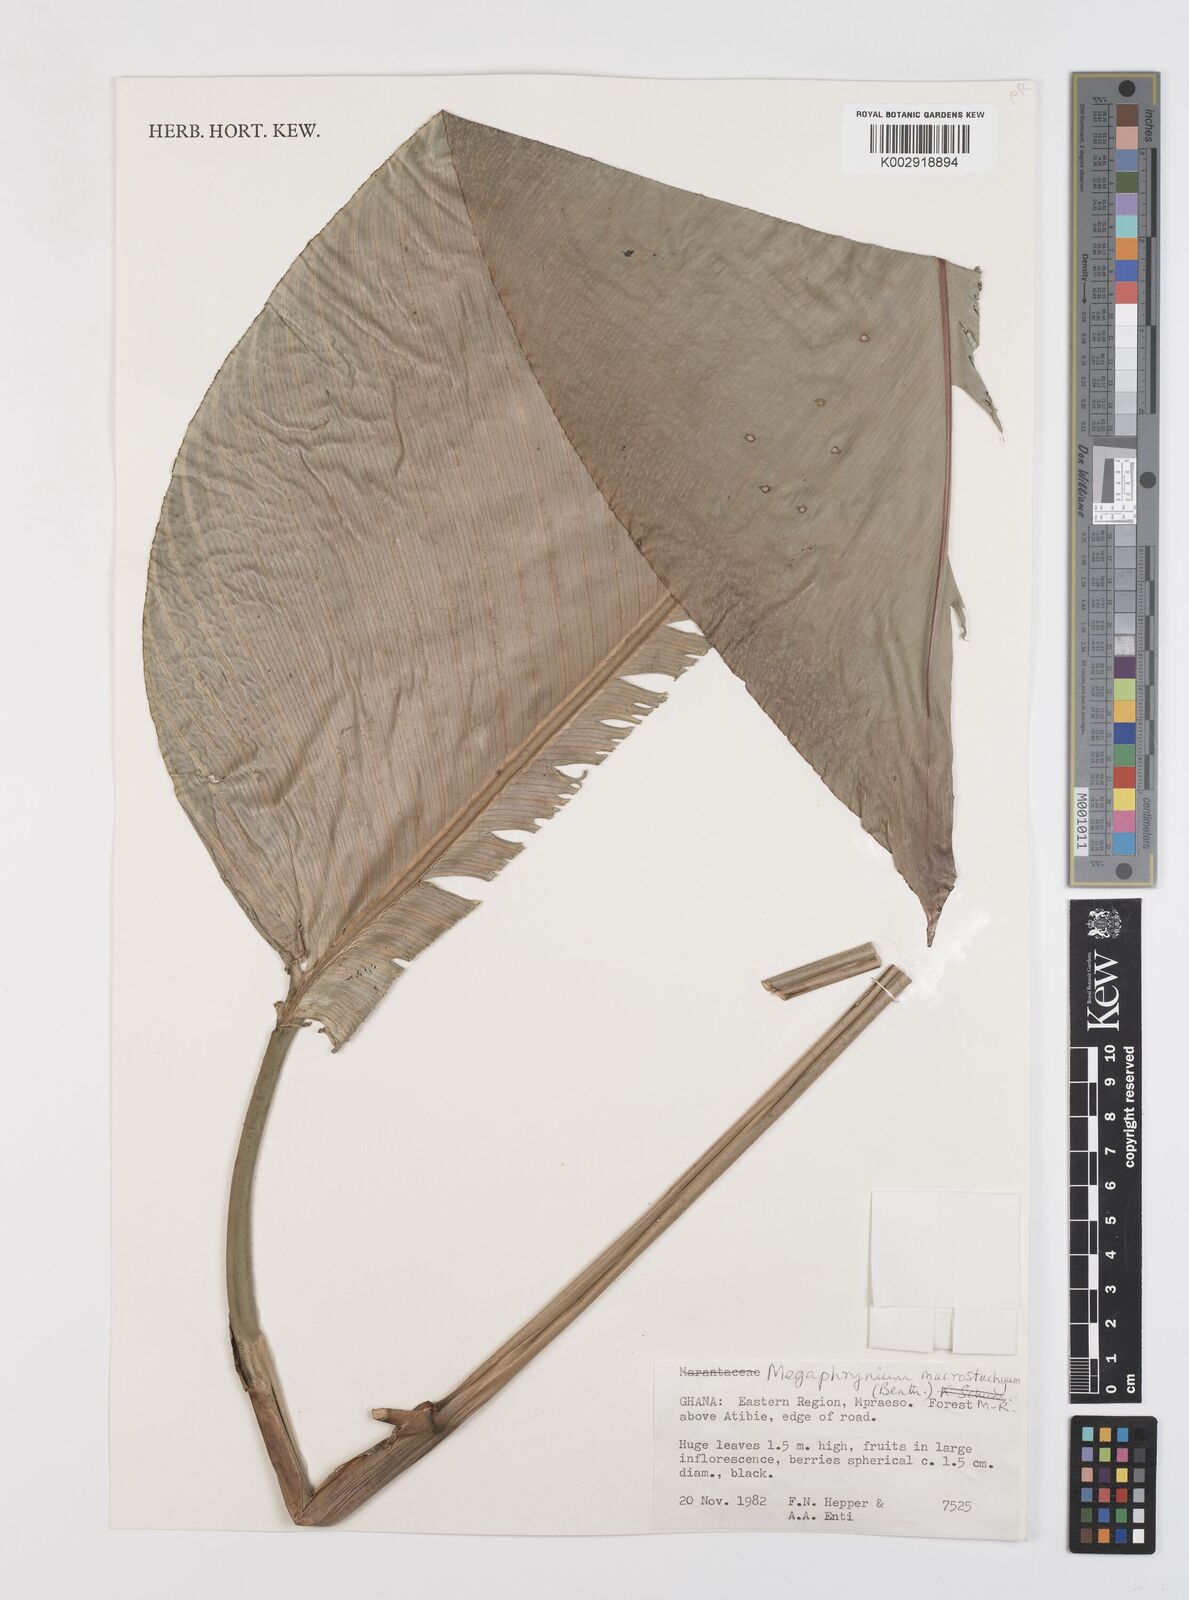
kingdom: Plantae
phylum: Tracheophyta
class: Liliopsida
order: Zingiberales
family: Marantaceae
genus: Megaphrynium
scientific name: Megaphrynium distans
